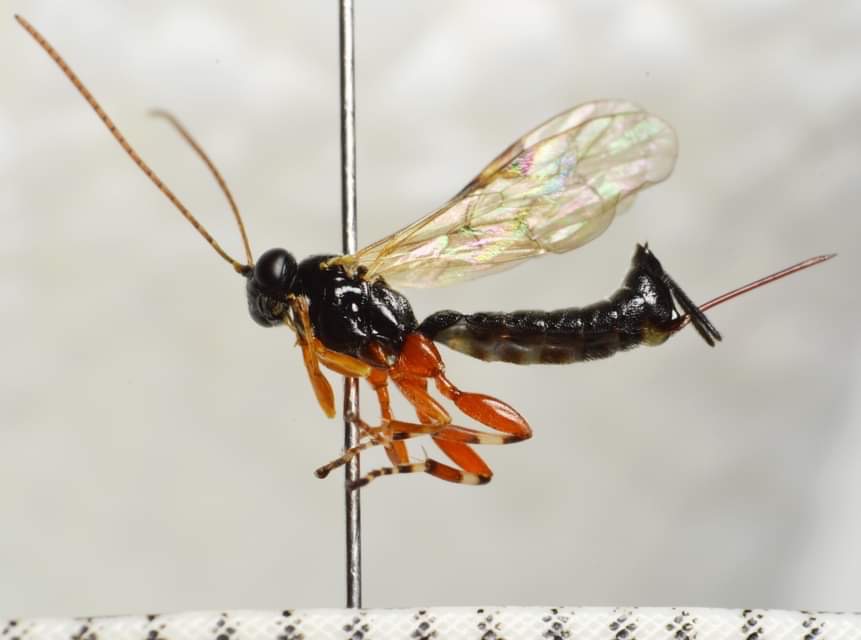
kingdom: Animalia
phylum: Arthropoda
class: Insecta
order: Hymenoptera
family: Ichneumonidae
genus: Itoplectis
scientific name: Itoplectis alternans
